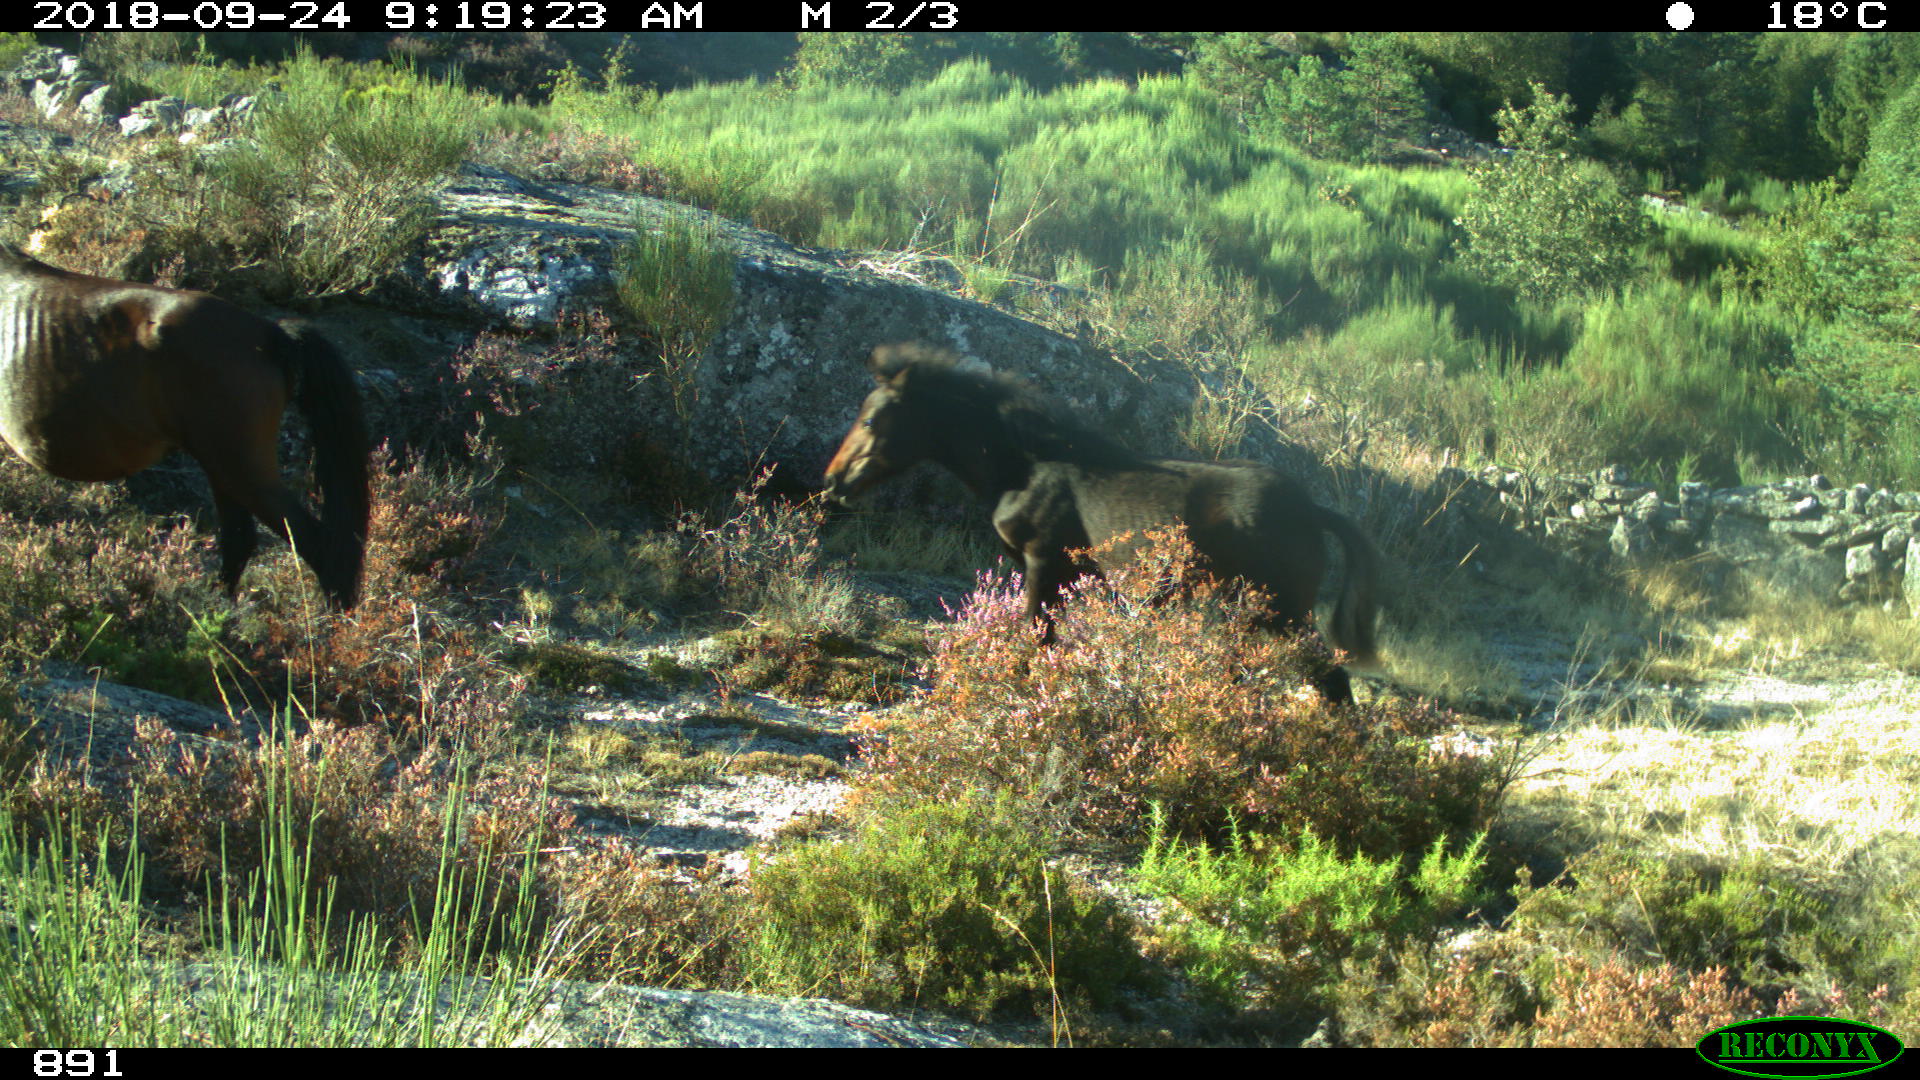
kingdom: Animalia
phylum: Chordata
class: Mammalia
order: Perissodactyla
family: Equidae
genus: Equus
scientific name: Equus caballus
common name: Horse
